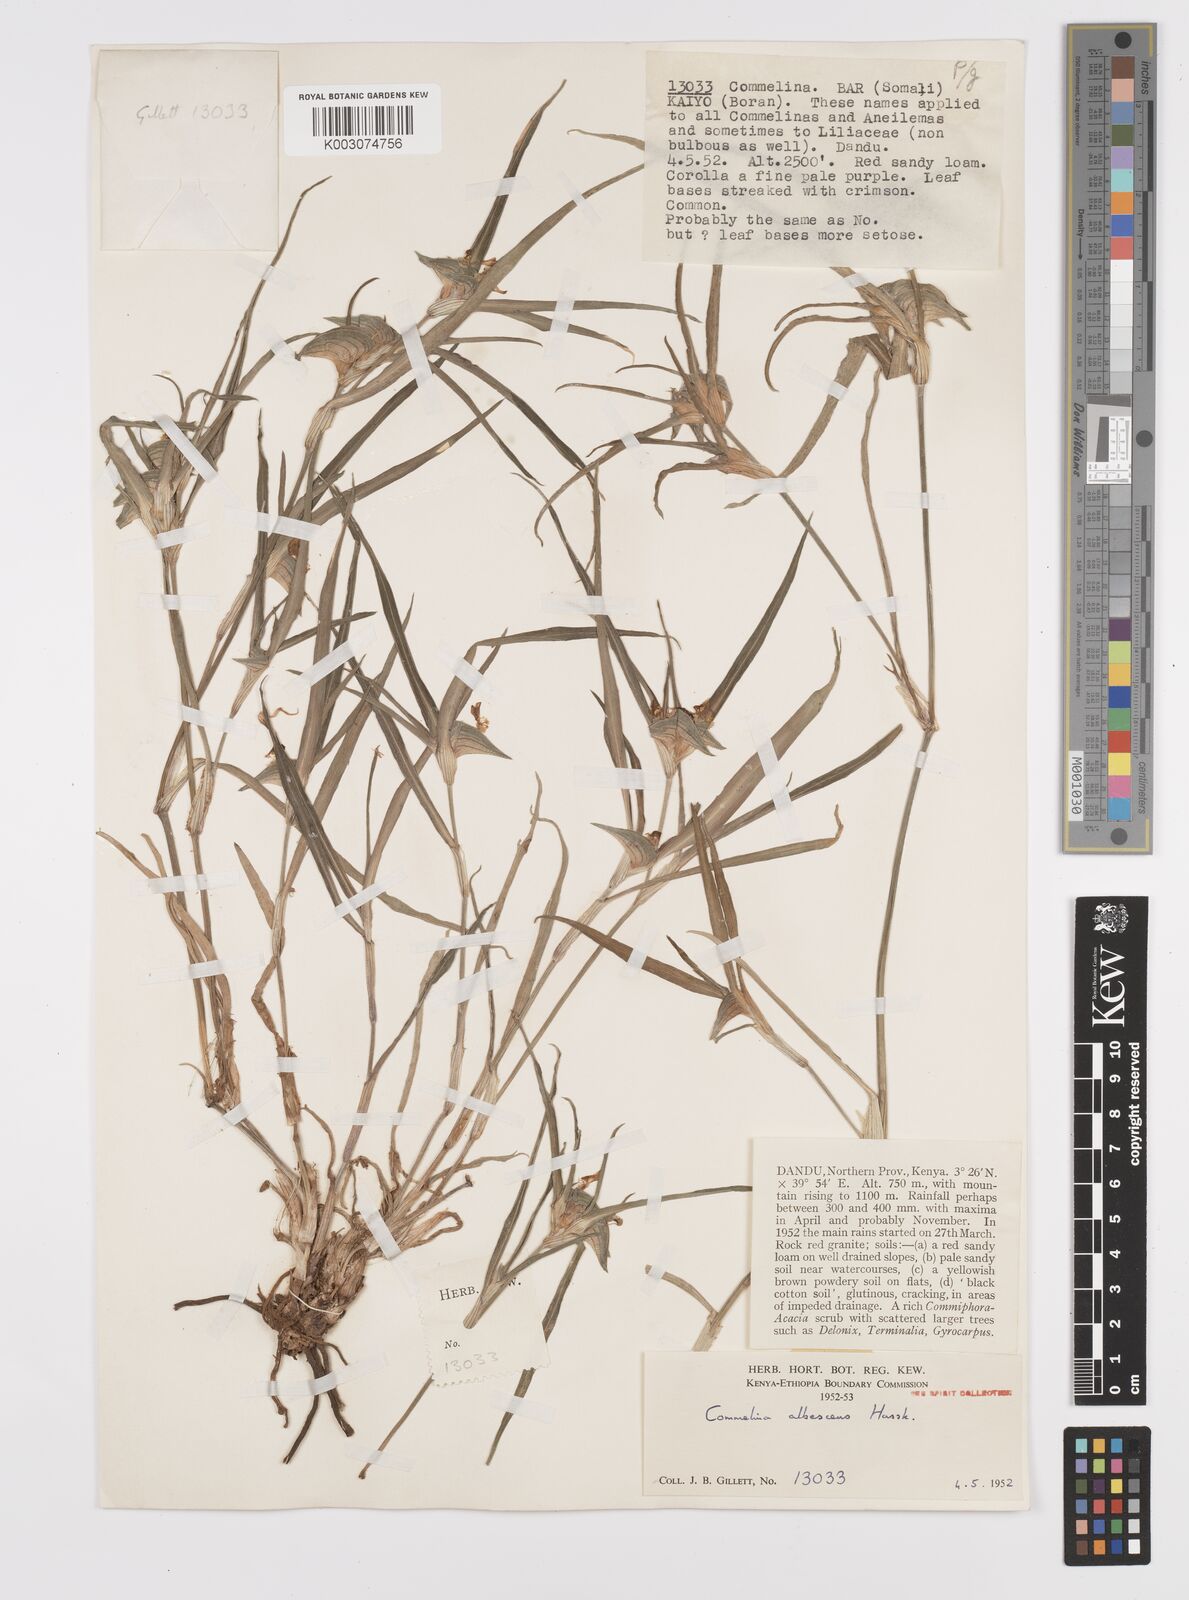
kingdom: Plantae
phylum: Tracheophyta
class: Liliopsida
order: Commelinales
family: Commelinaceae
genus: Commelina
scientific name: Commelina albescens
